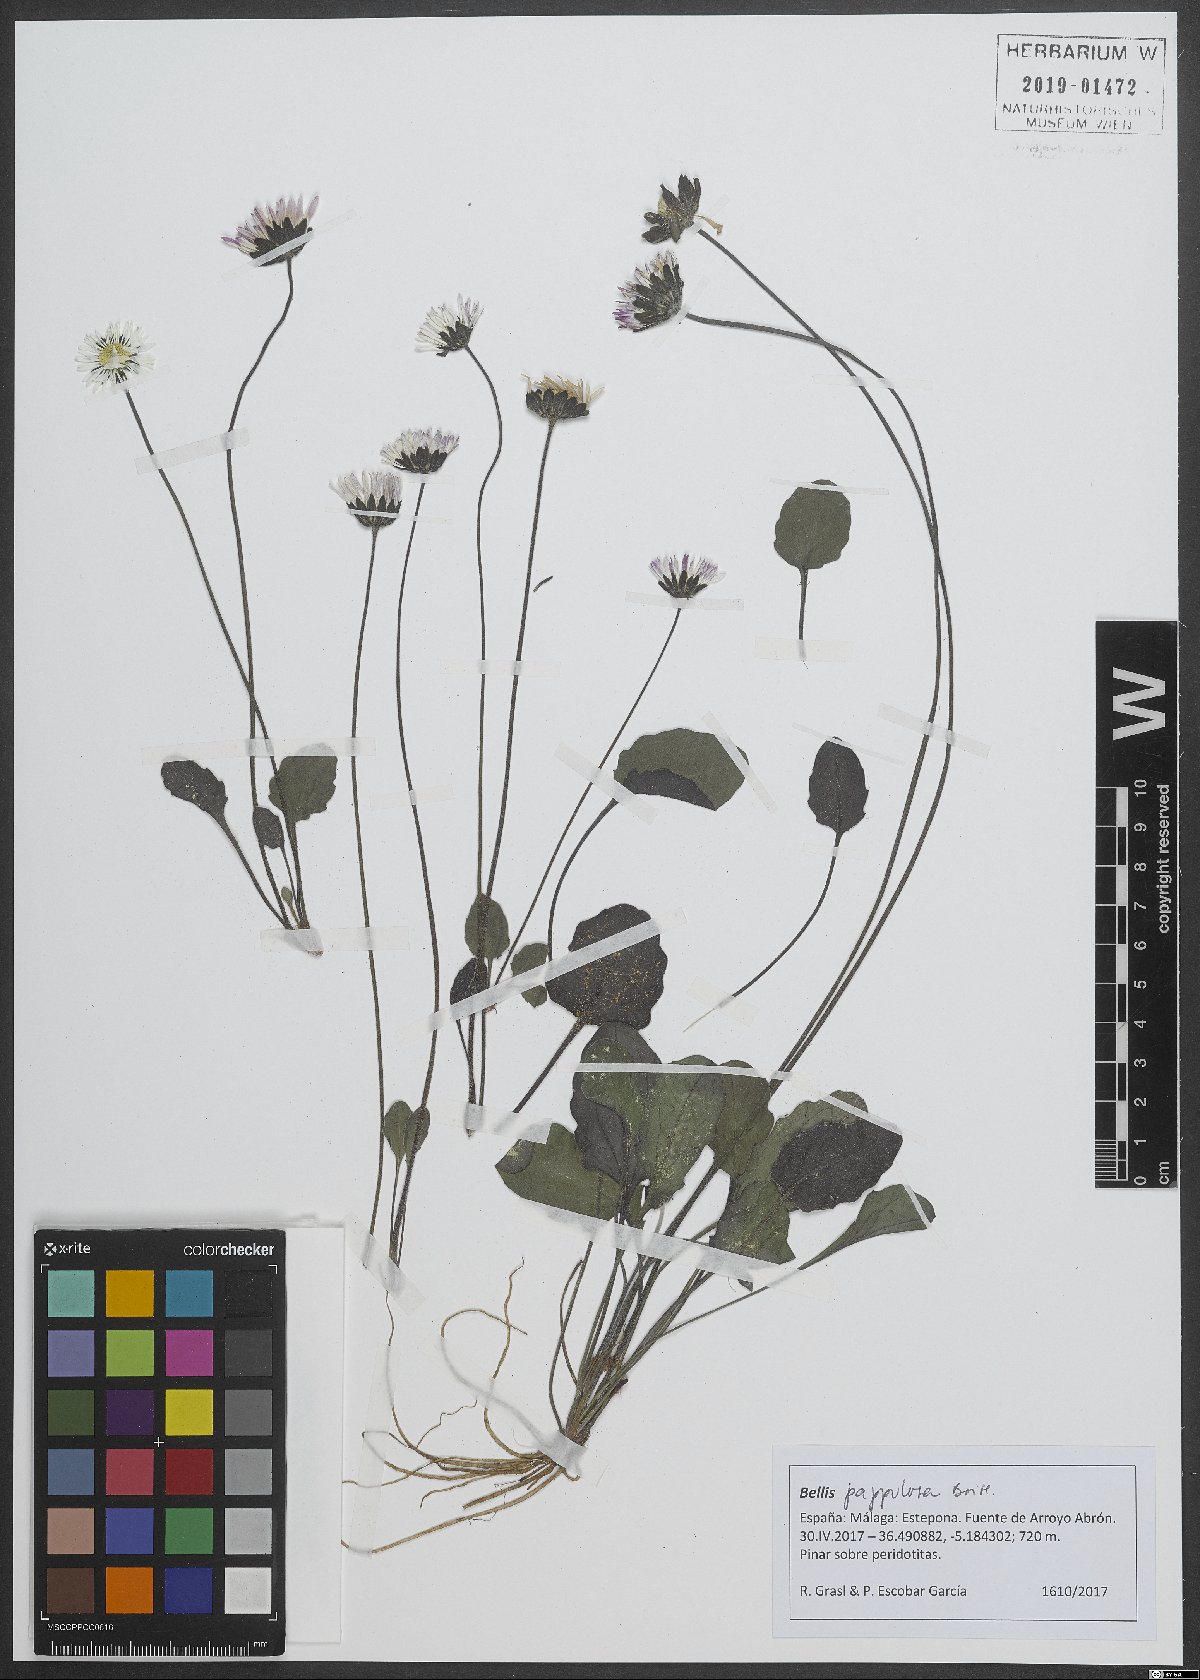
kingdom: Plantae
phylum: Tracheophyta
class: Magnoliopsida
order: Asterales
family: Asteraceae
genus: Bellis
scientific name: Bellis sylvestris
